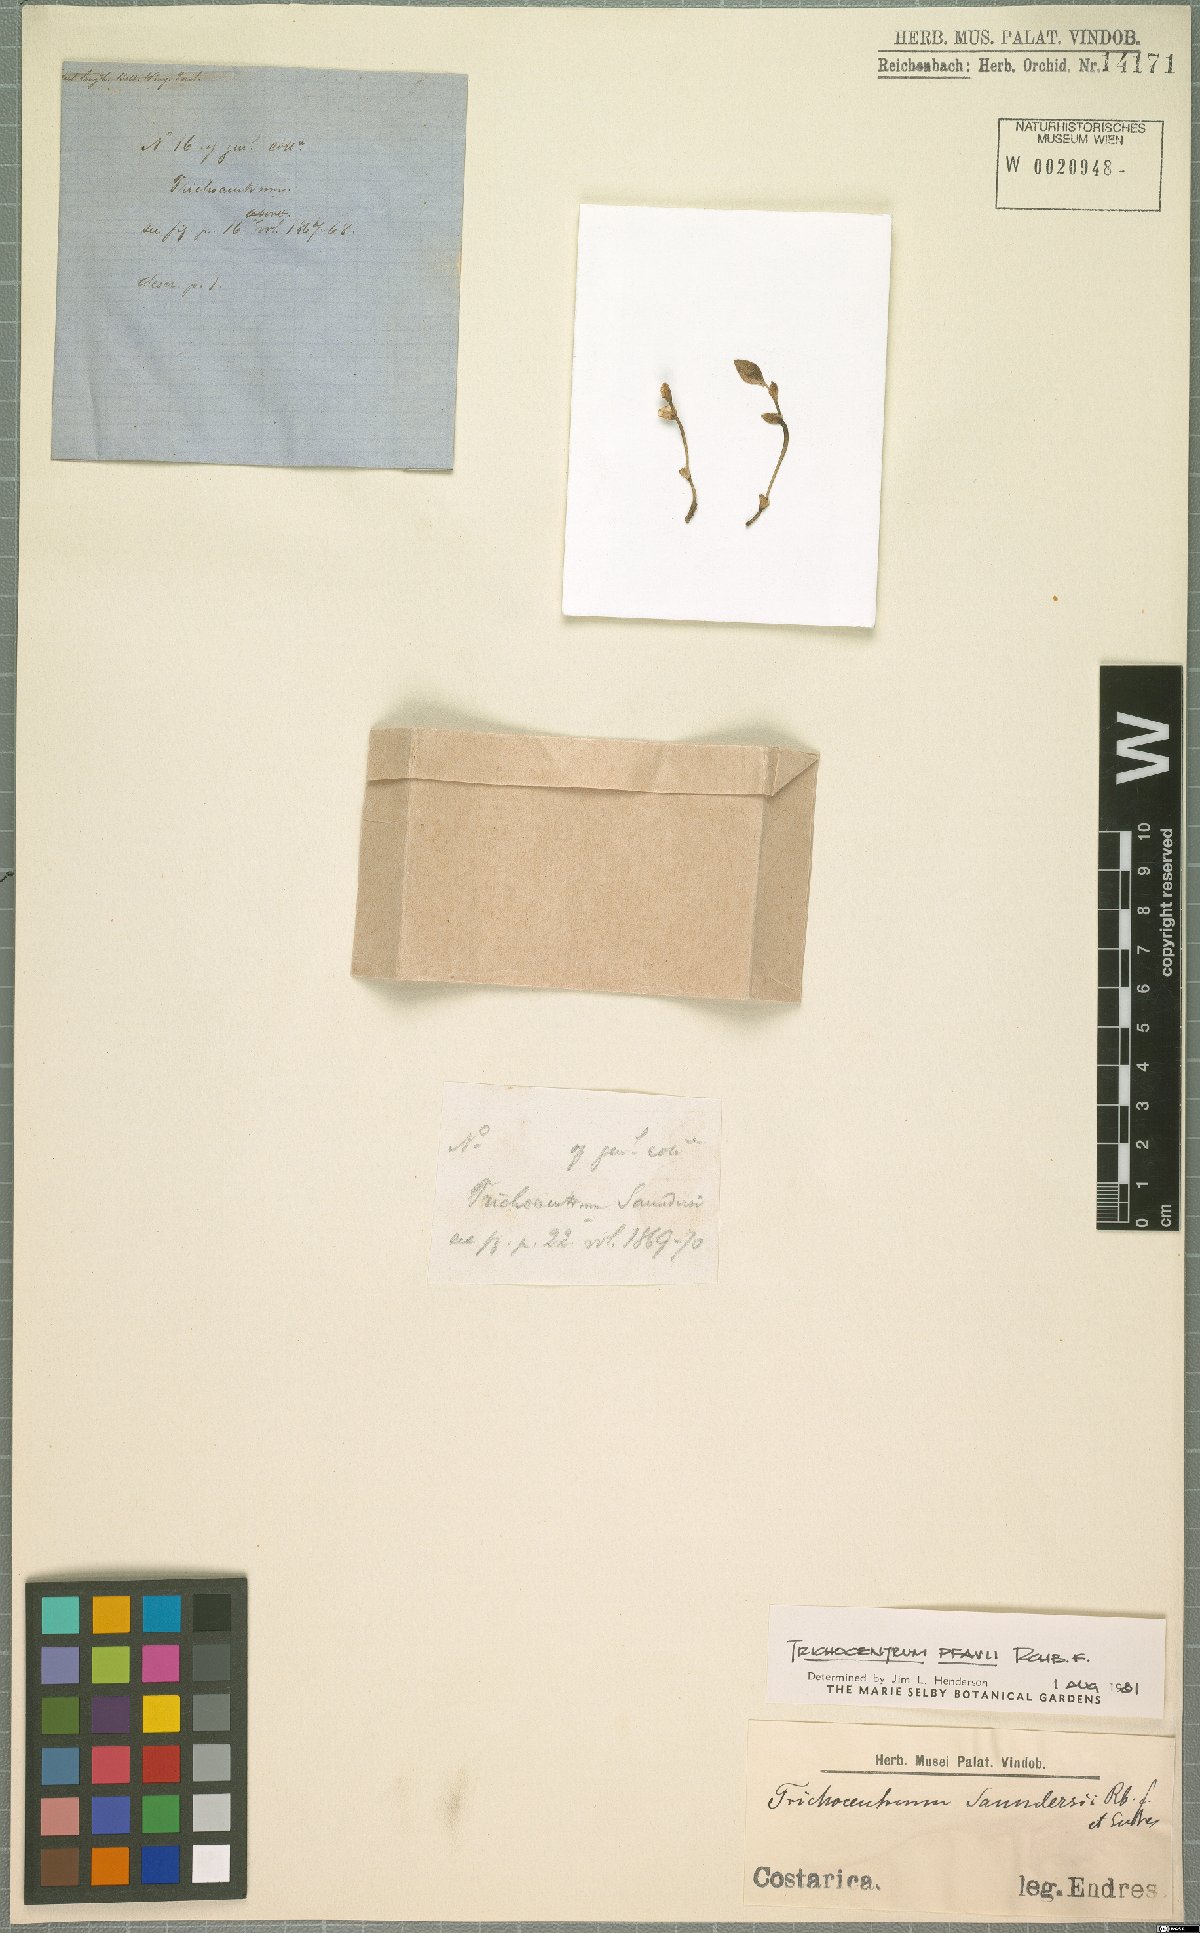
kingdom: Plantae
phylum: Tracheophyta
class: Liliopsida
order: Asparagales
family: Orchidaceae
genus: Trichocentrum
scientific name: Trichocentrum pfavii
